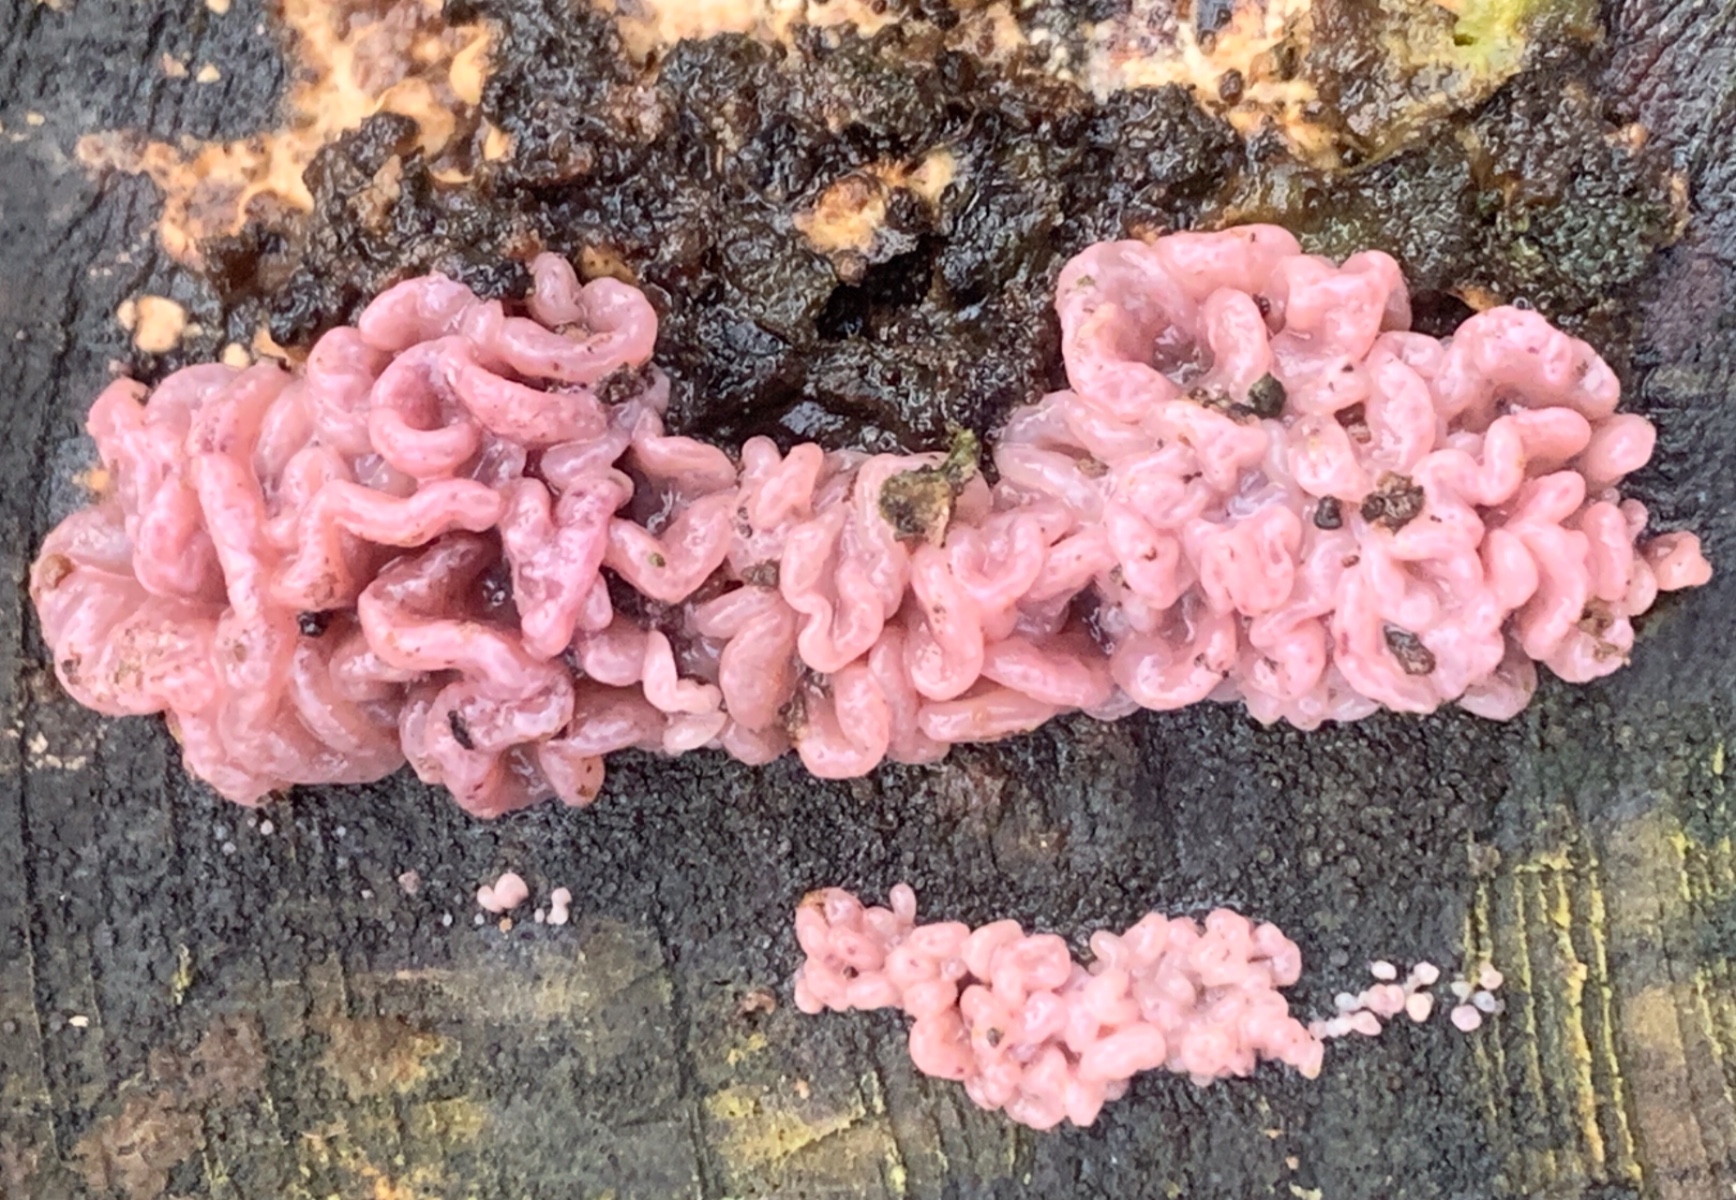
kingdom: Fungi
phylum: Ascomycota
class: Leotiomycetes
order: Helotiales
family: Gelatinodiscaceae
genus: Ascocoryne
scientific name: Ascocoryne sarcoides
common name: rødlilla sejskive
